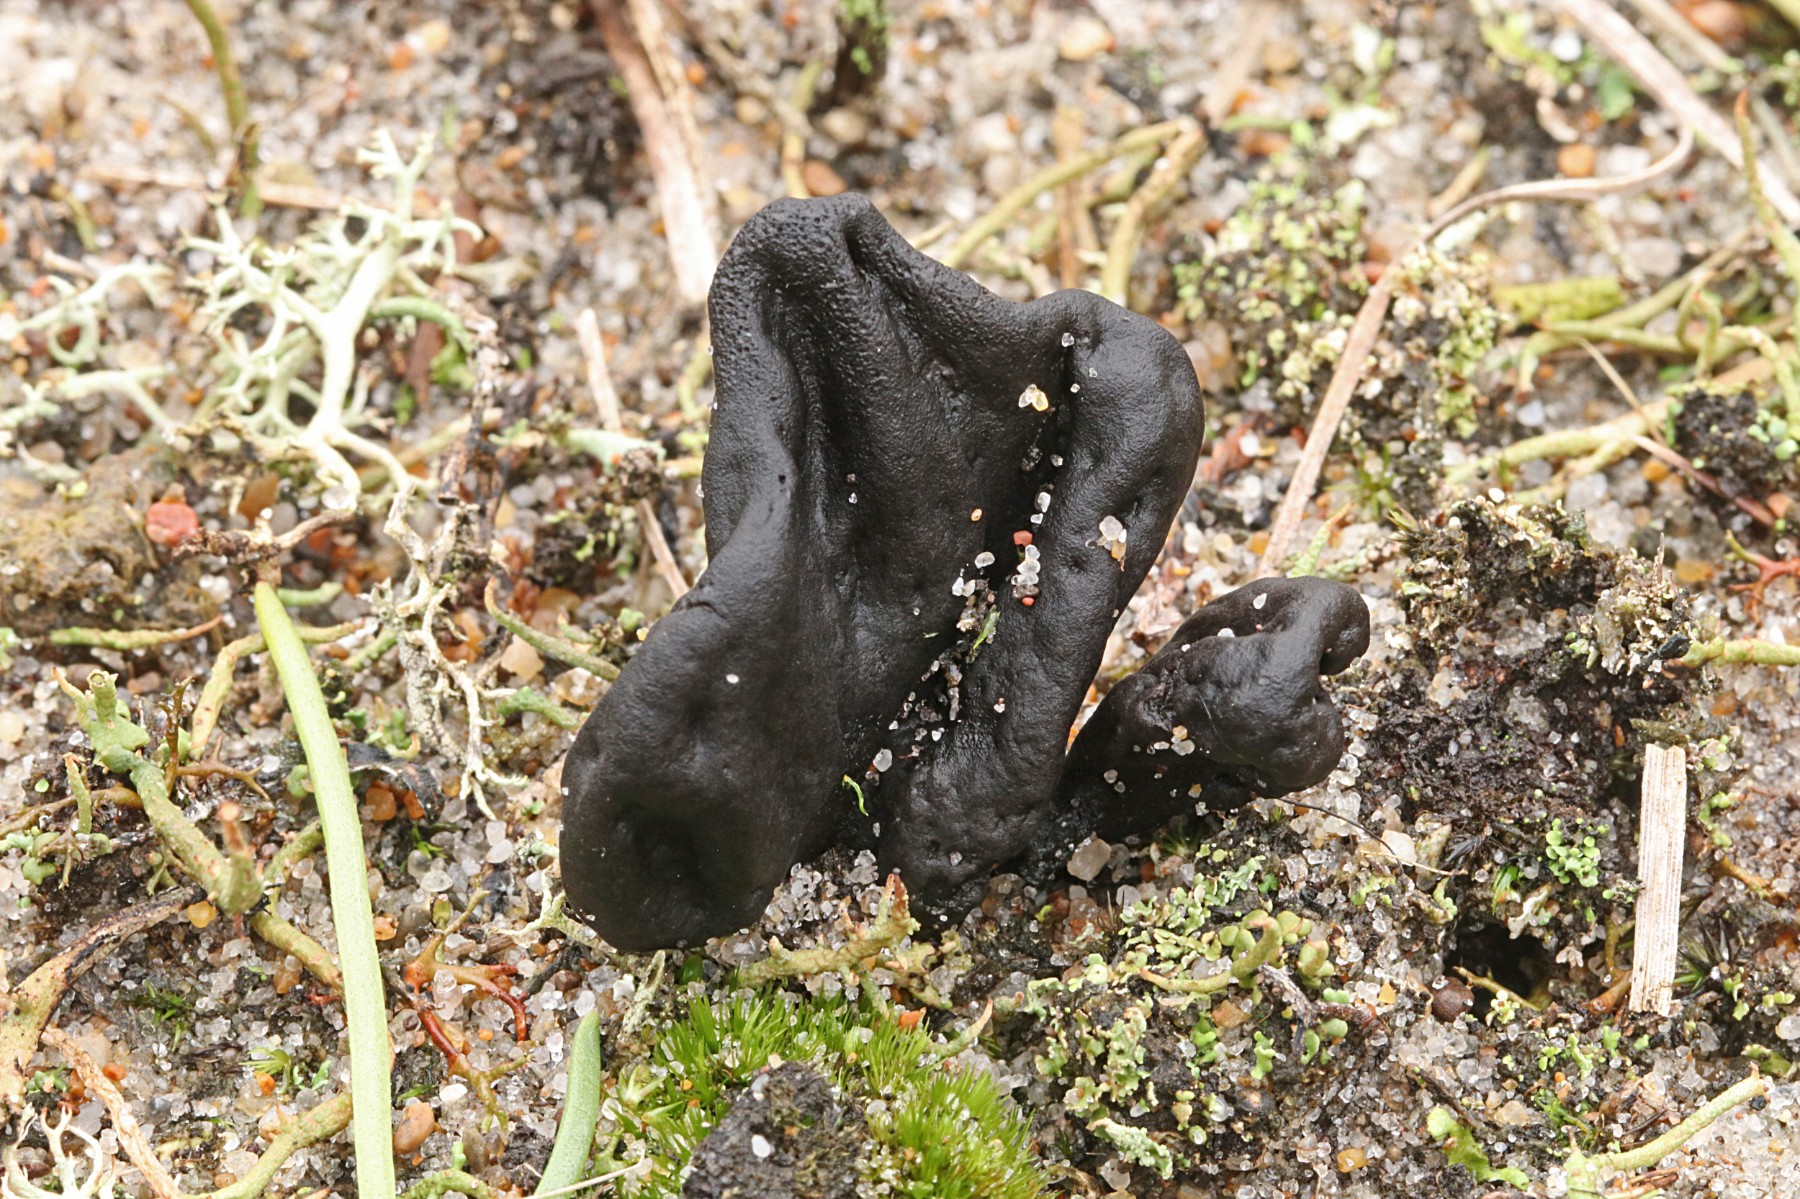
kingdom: Fungi
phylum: Ascomycota
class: Geoglossomycetes
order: Geoglossales
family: Geoglossaceae
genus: Sabuloglossum
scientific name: Sabuloglossum arenarium
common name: klit-jordtunge
